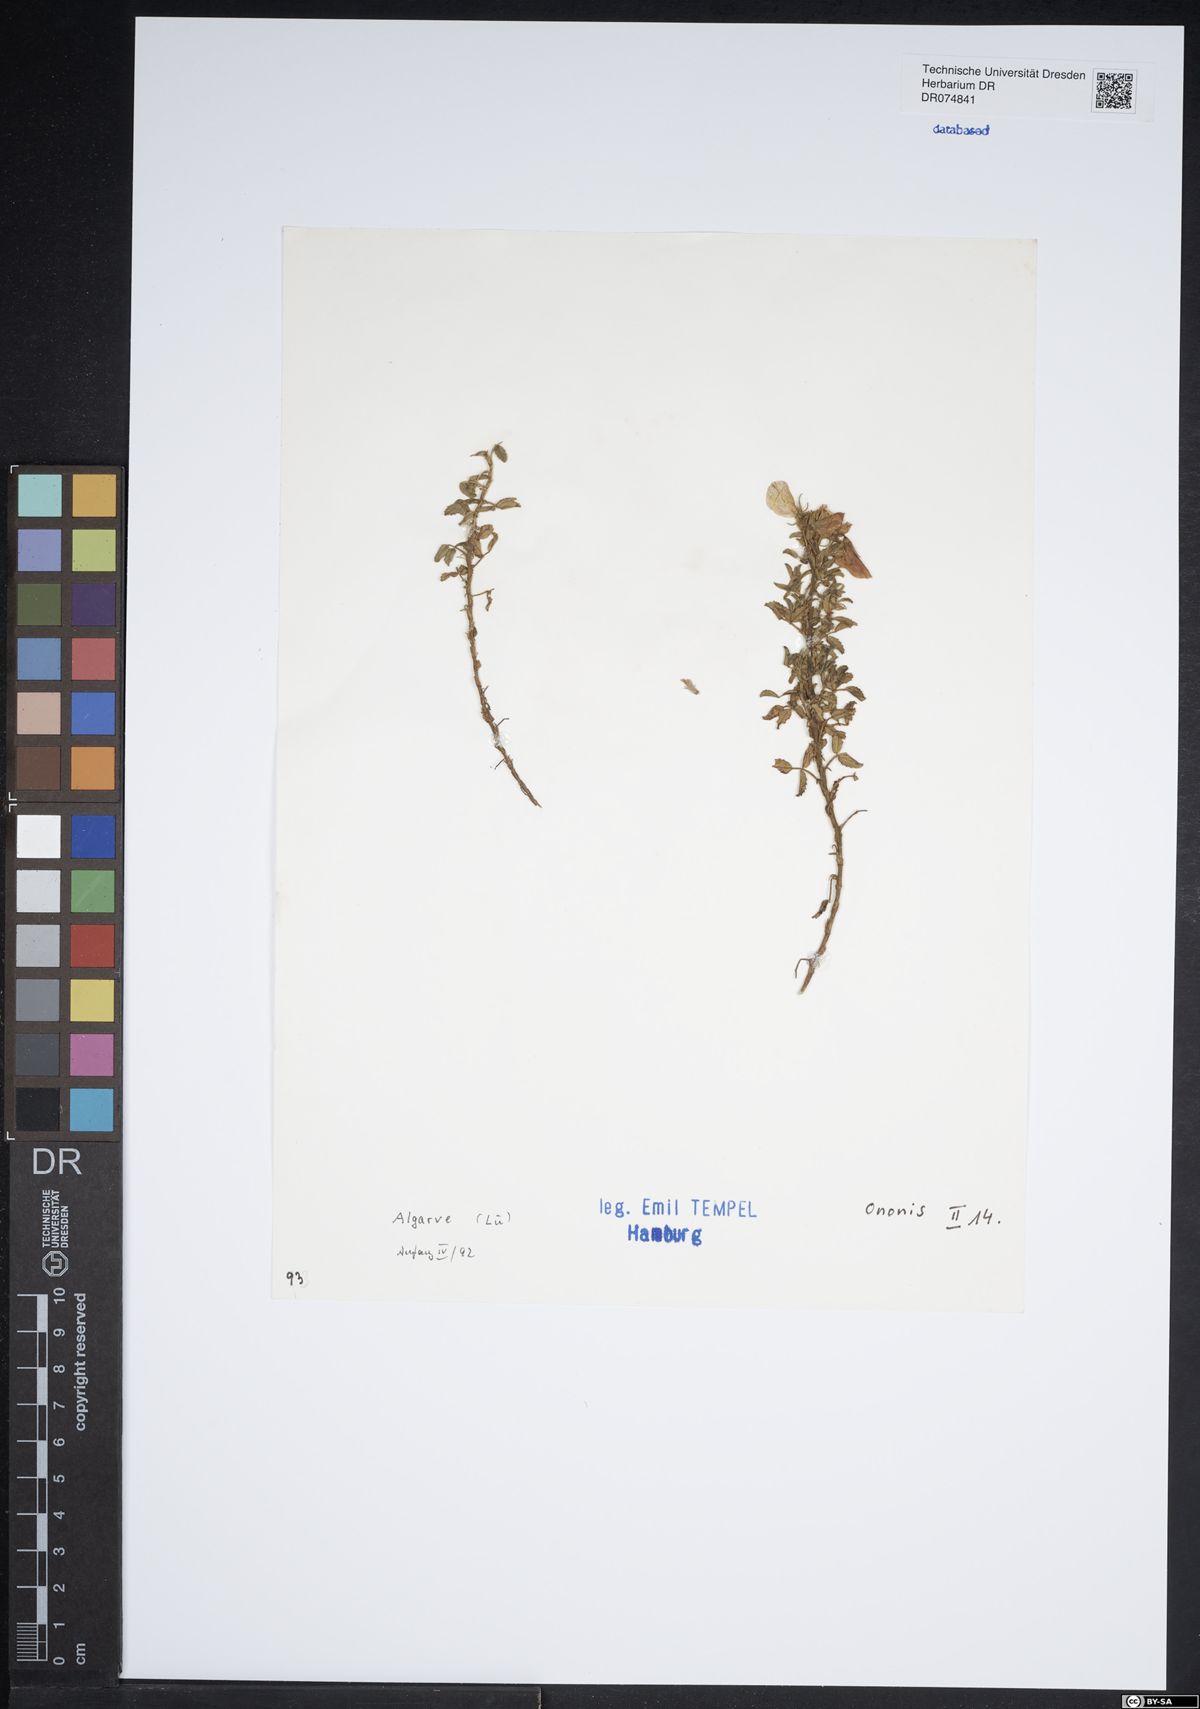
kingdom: Plantae
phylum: Tracheophyta
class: Magnoliopsida
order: Fabales
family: Fabaceae
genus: Ononis
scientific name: Ononis
